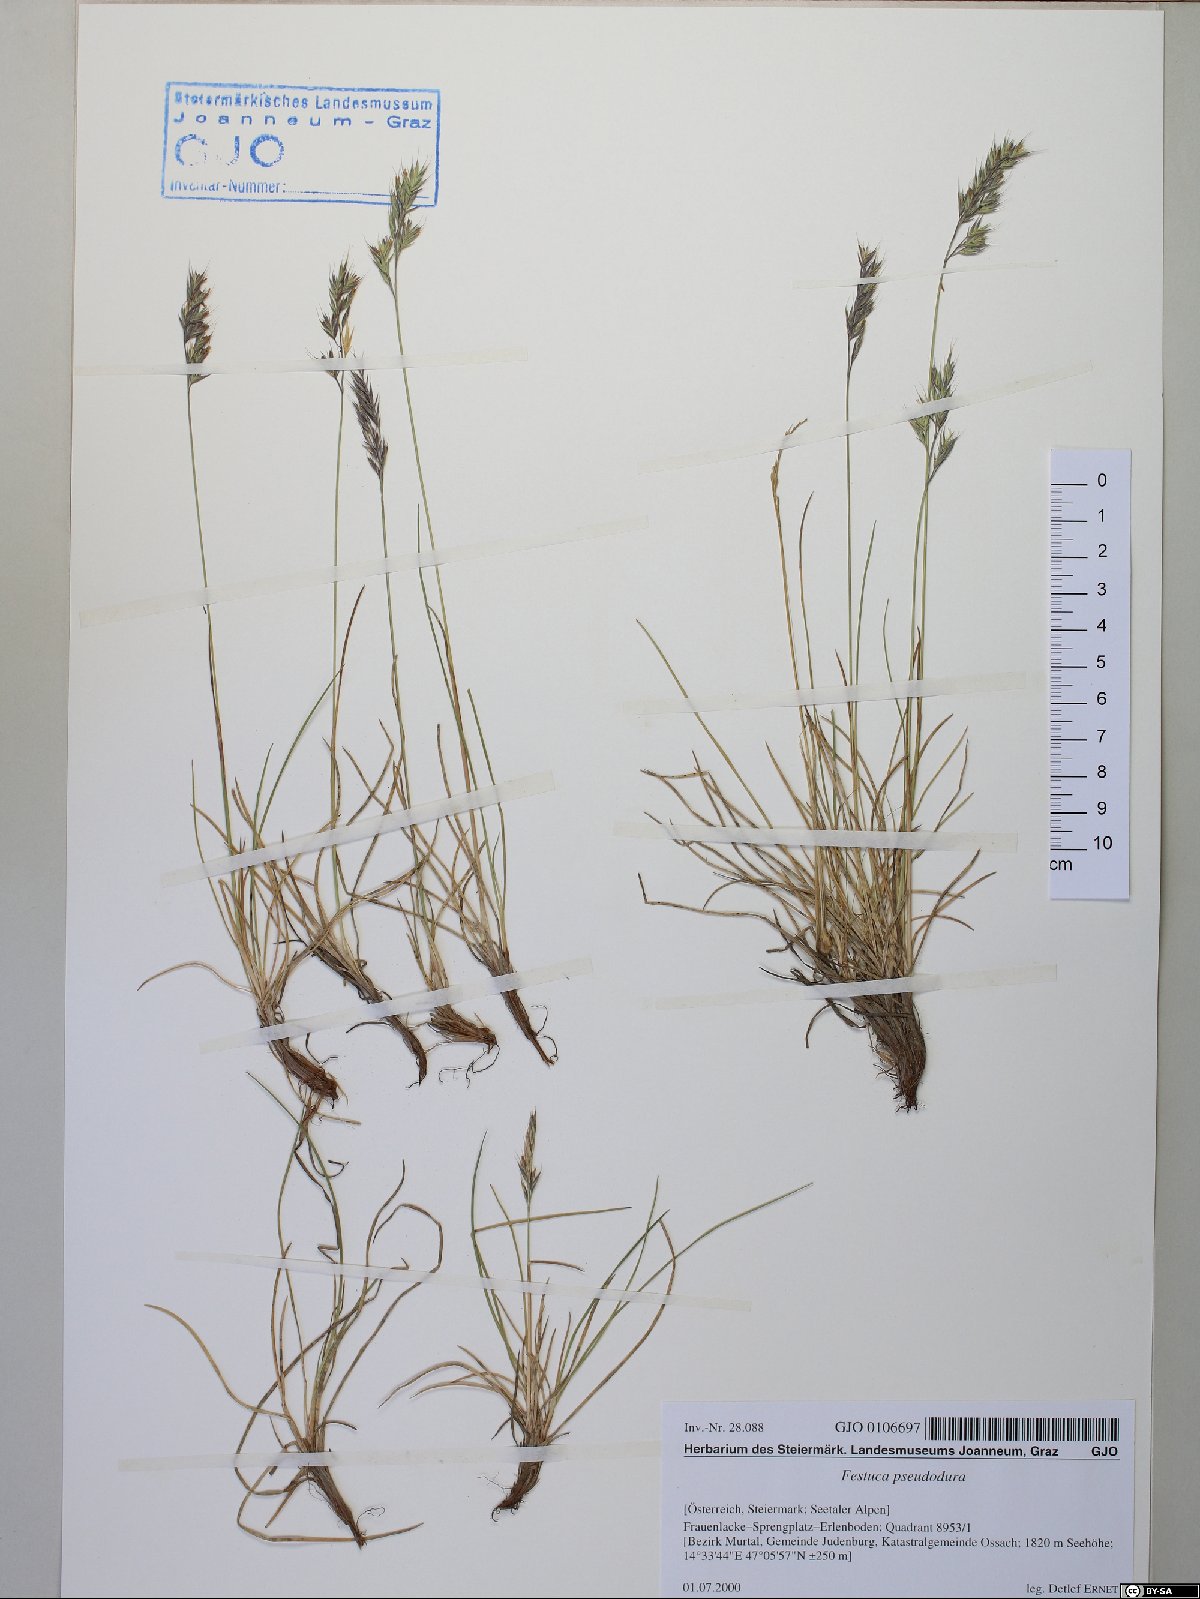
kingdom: Plantae
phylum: Tracheophyta
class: Liliopsida
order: Poales
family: Poaceae
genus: Festuca
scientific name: Festuca pseudodura
